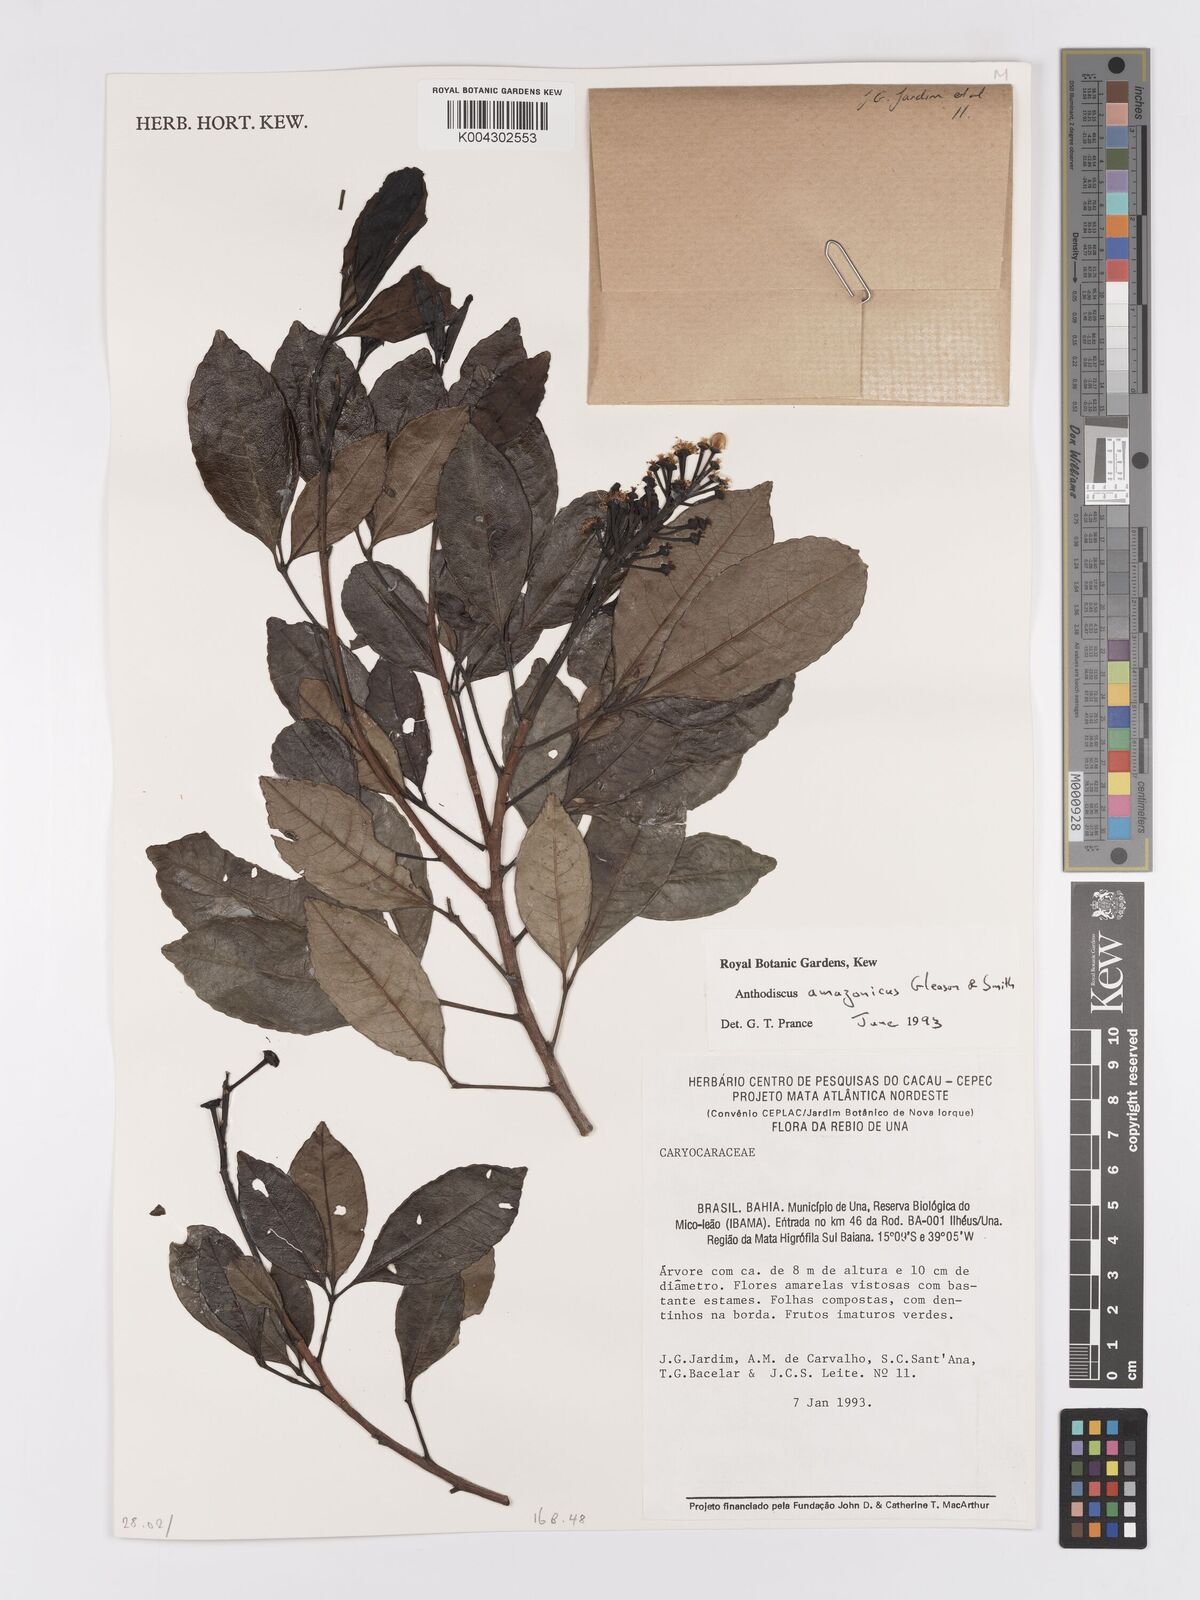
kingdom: Plantae
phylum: Tracheophyta
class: Magnoliopsida
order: Malpighiales
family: Caryocaraceae
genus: Anthodiscus
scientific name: Anthodiscus amazonicus
